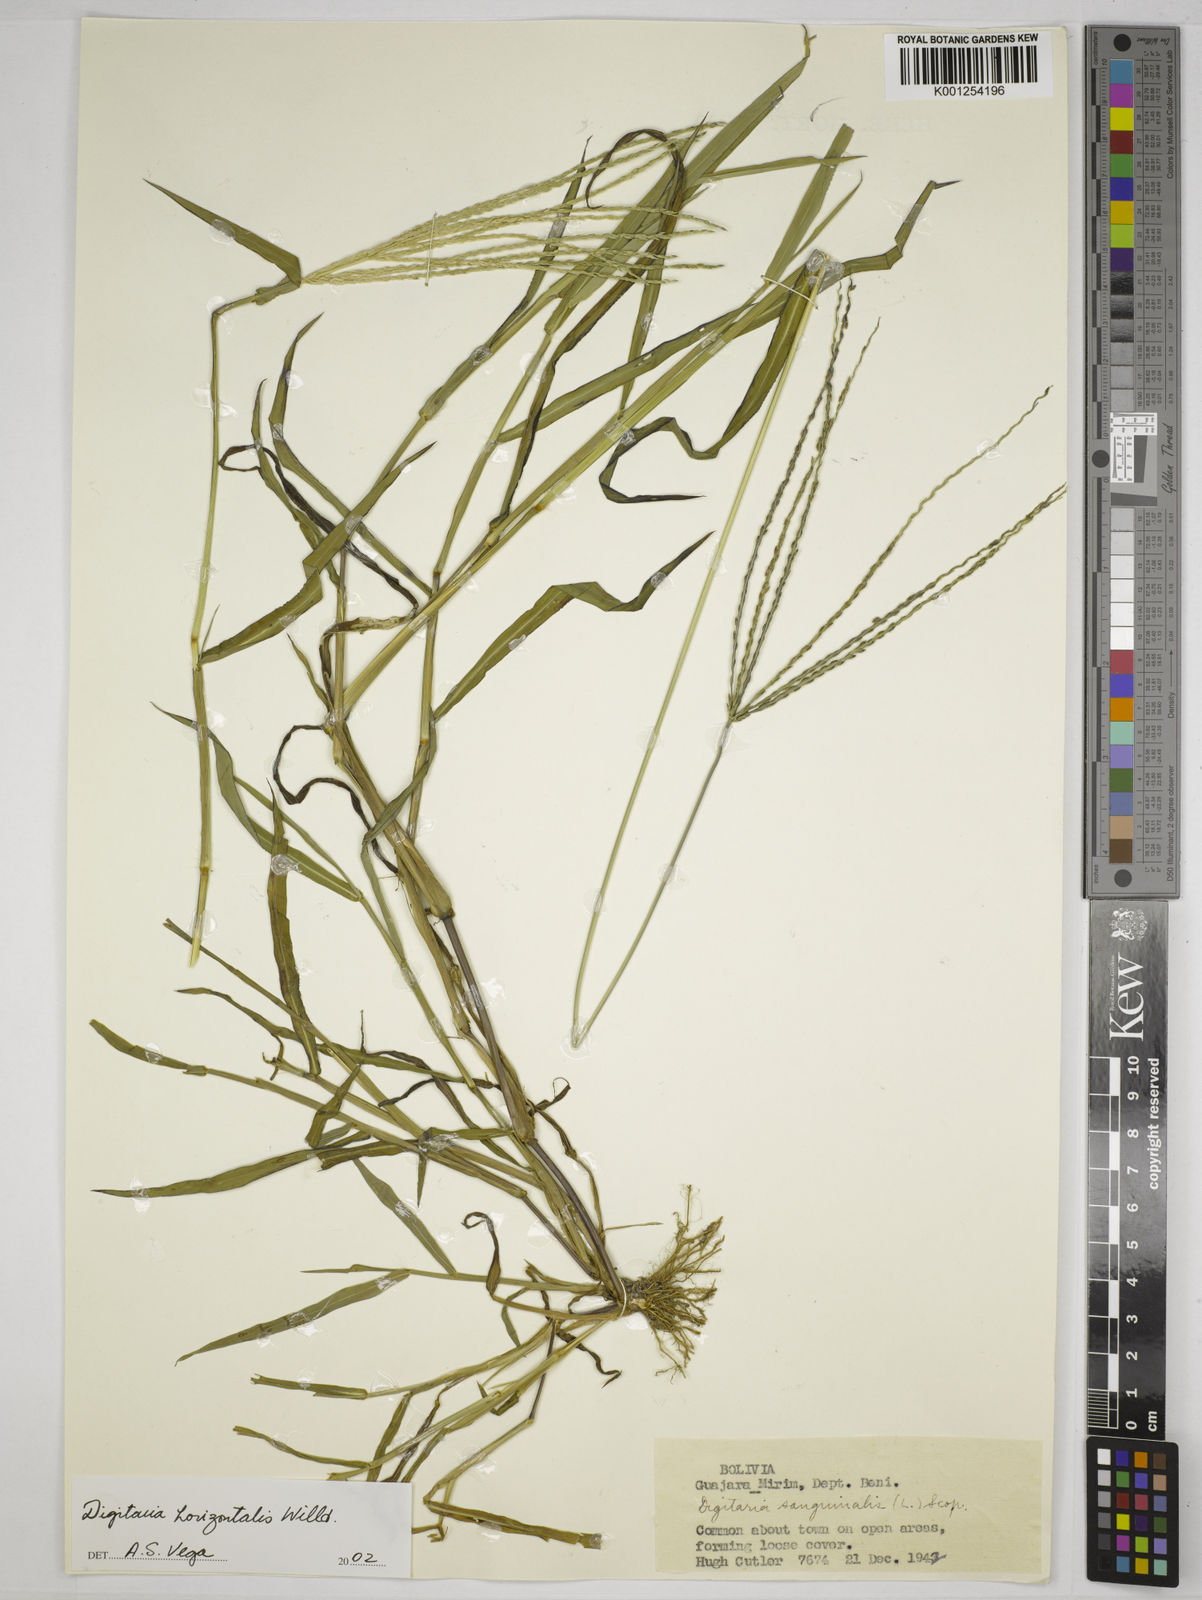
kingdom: Plantae
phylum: Tracheophyta
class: Liliopsida
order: Poales
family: Poaceae
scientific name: Poaceae
